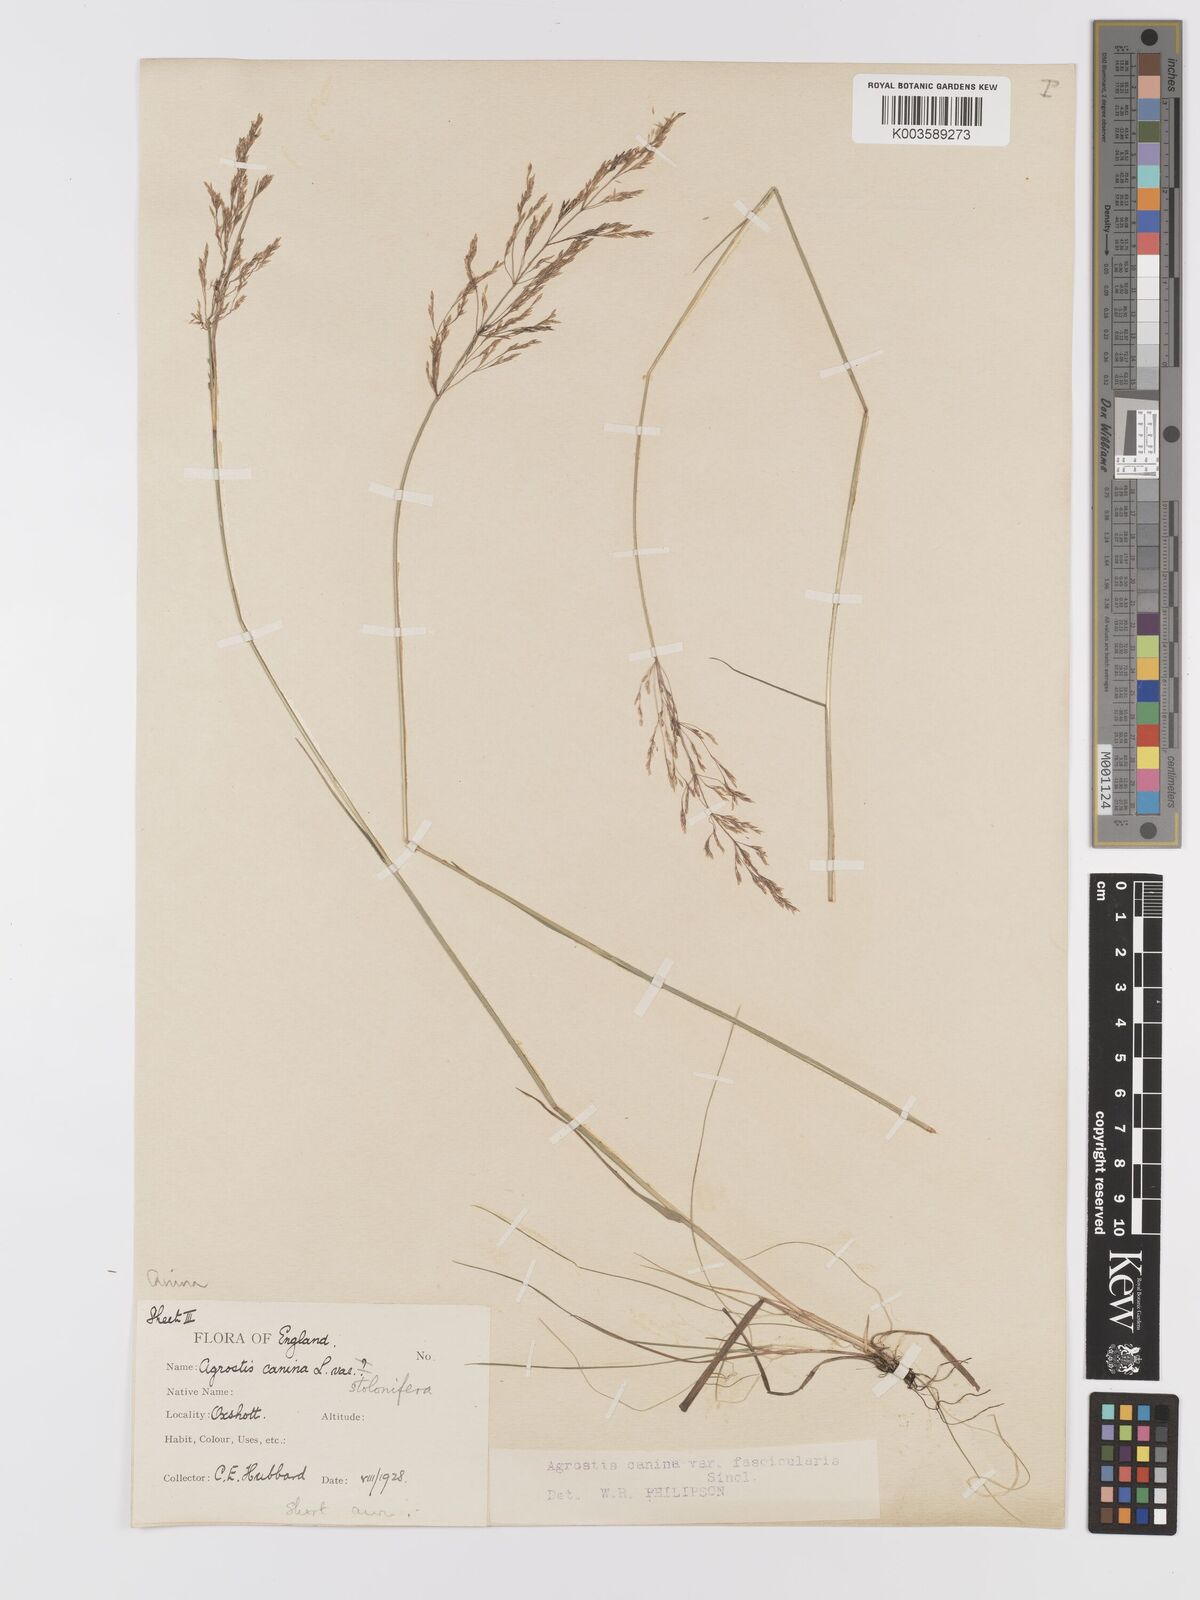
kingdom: Plantae
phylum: Tracheophyta
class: Liliopsida
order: Poales
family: Poaceae
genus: Agrostis
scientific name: Agrostis canina
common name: Velvet bent
